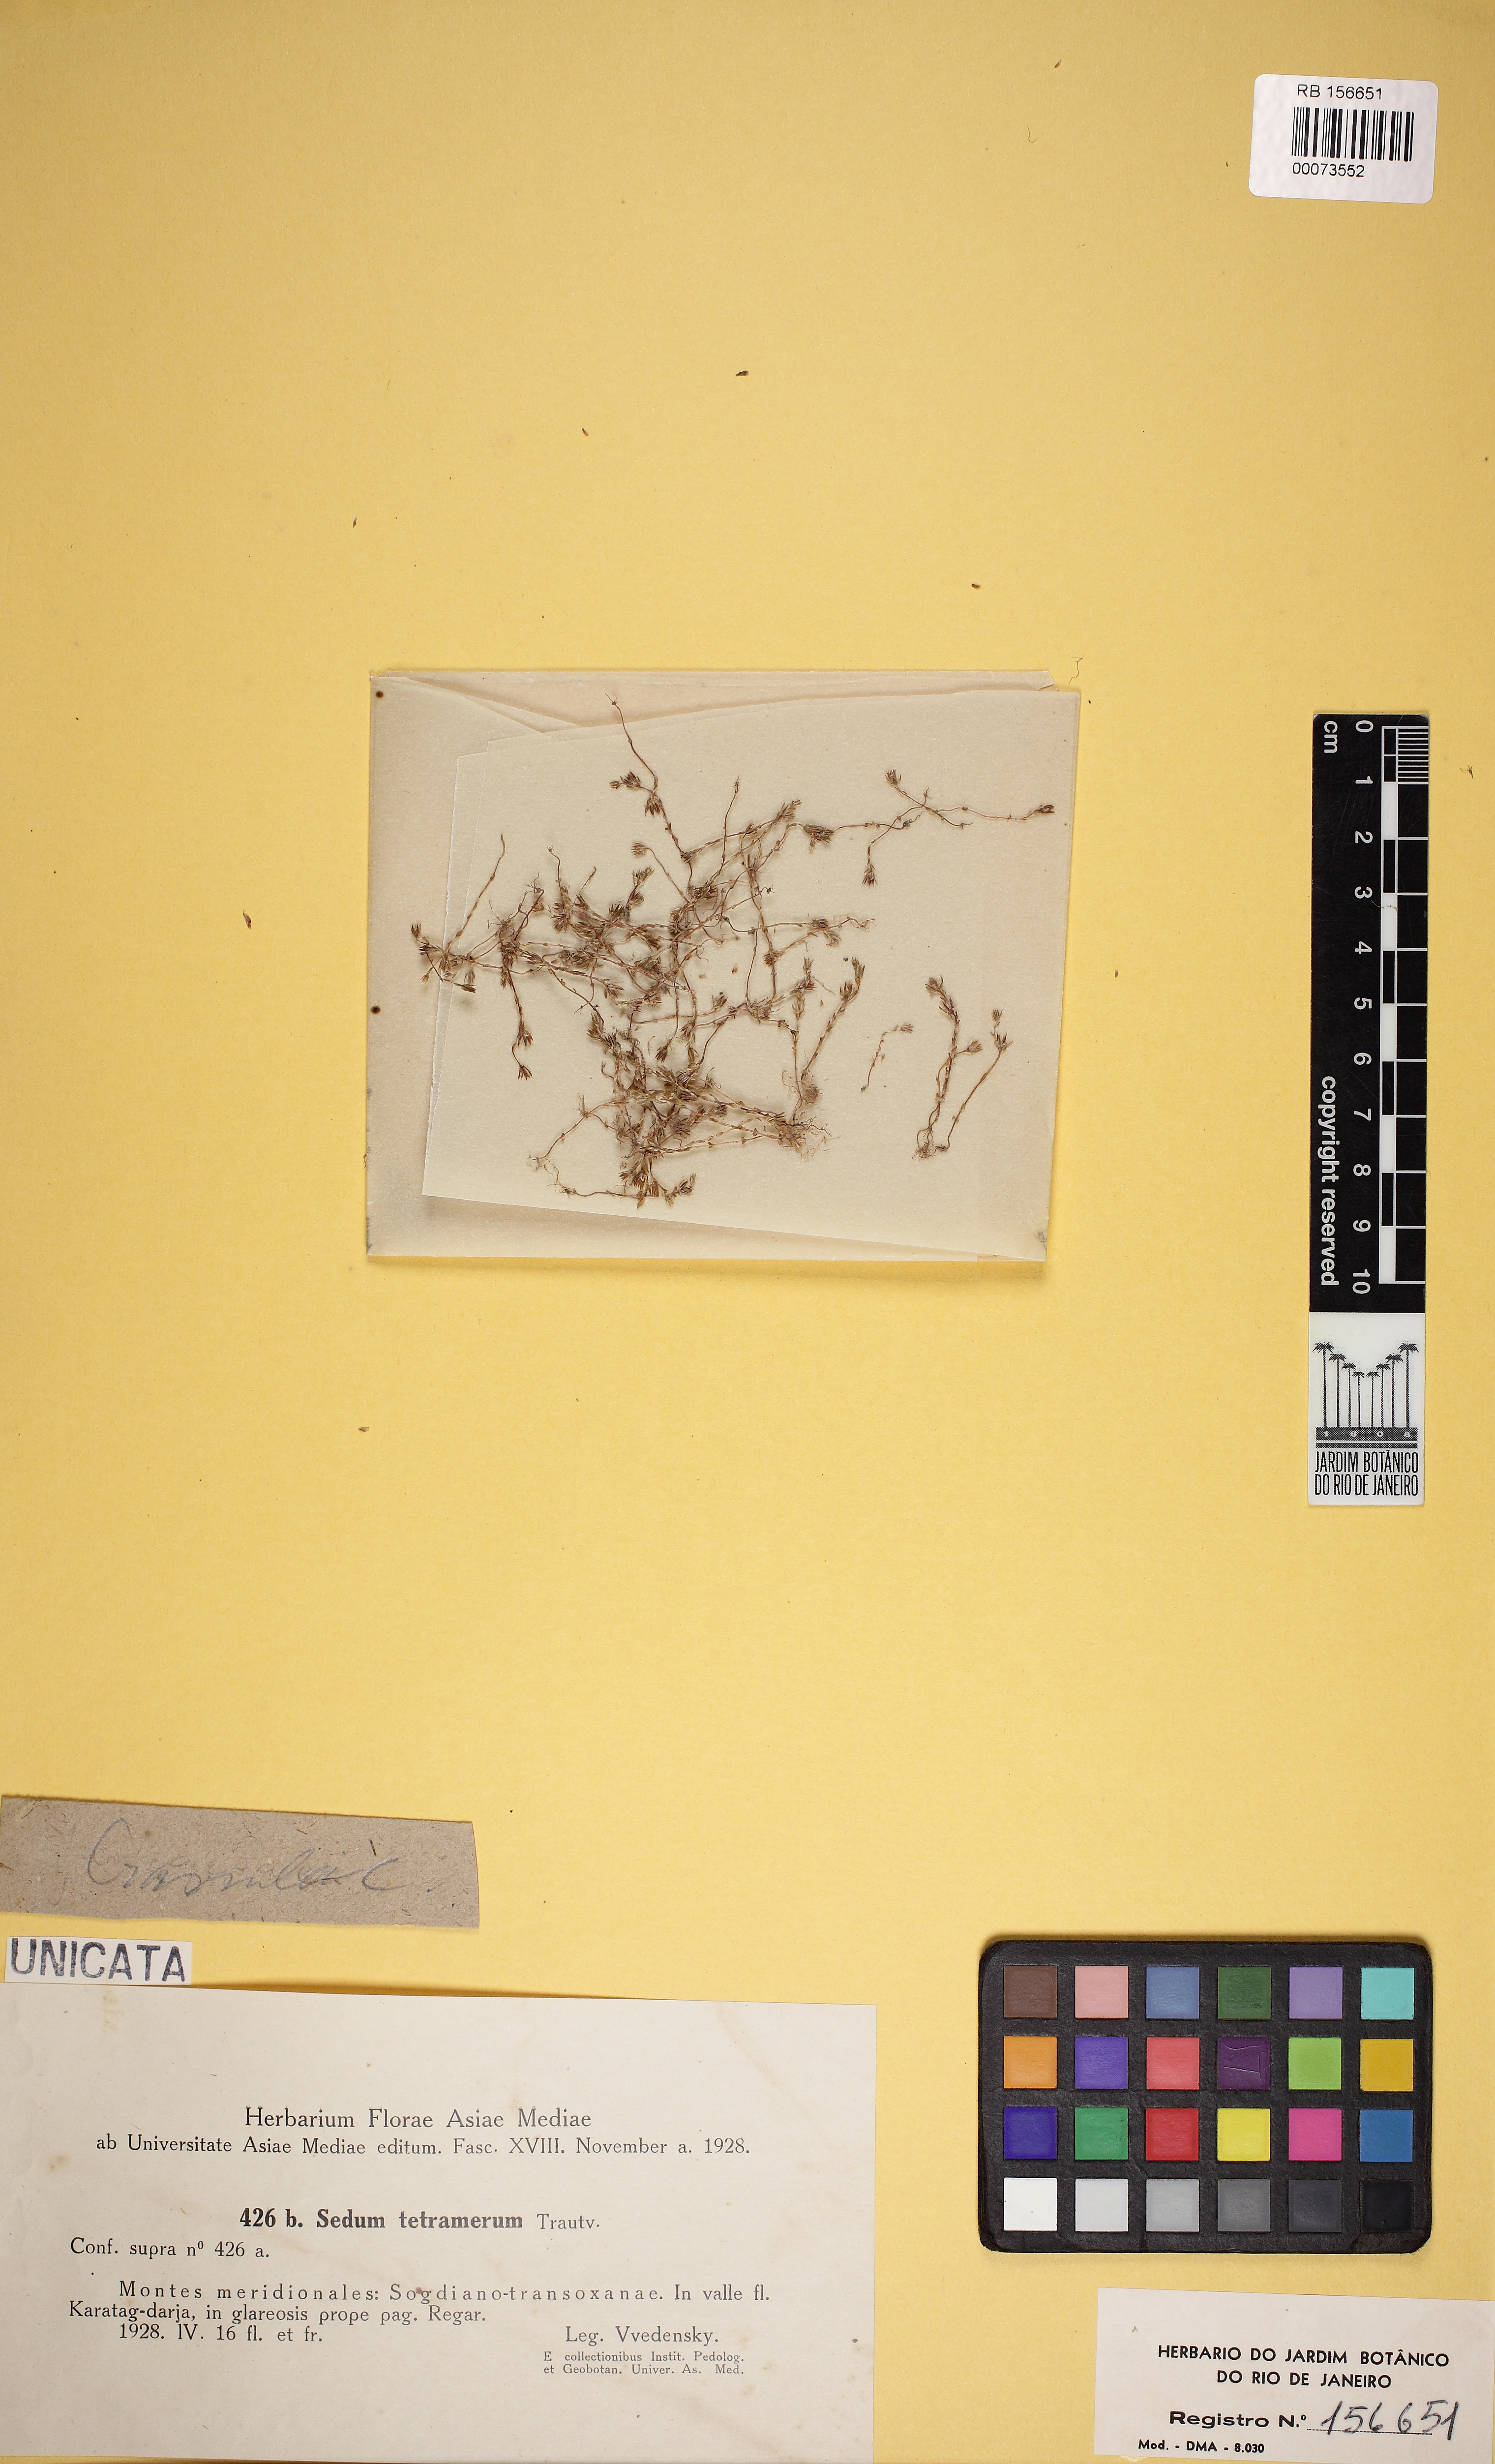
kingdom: Plantae
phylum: Tracheophyta
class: Magnoliopsida
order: Saxifragales
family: Crassulaceae
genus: Sedum
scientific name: Sedum aetnense
